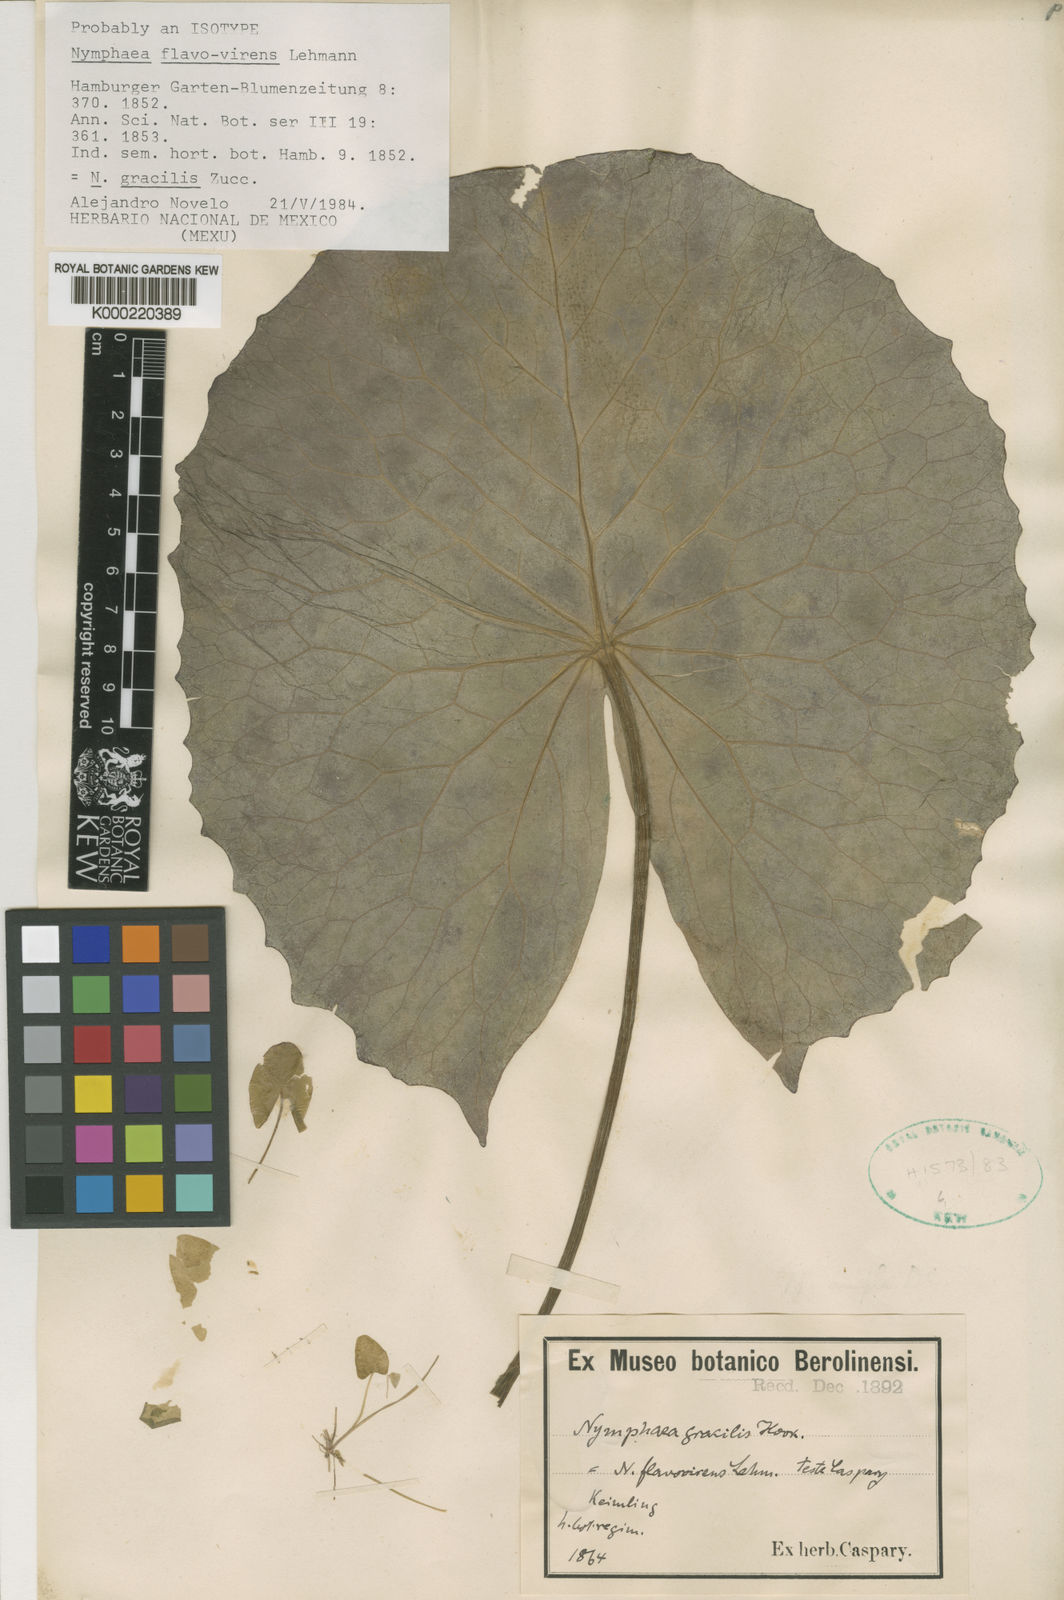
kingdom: Plantae
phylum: Tracheophyta
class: Magnoliopsida
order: Nymphaeales
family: Nymphaeaceae
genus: Nymphaea
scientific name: Nymphaea gracilis
